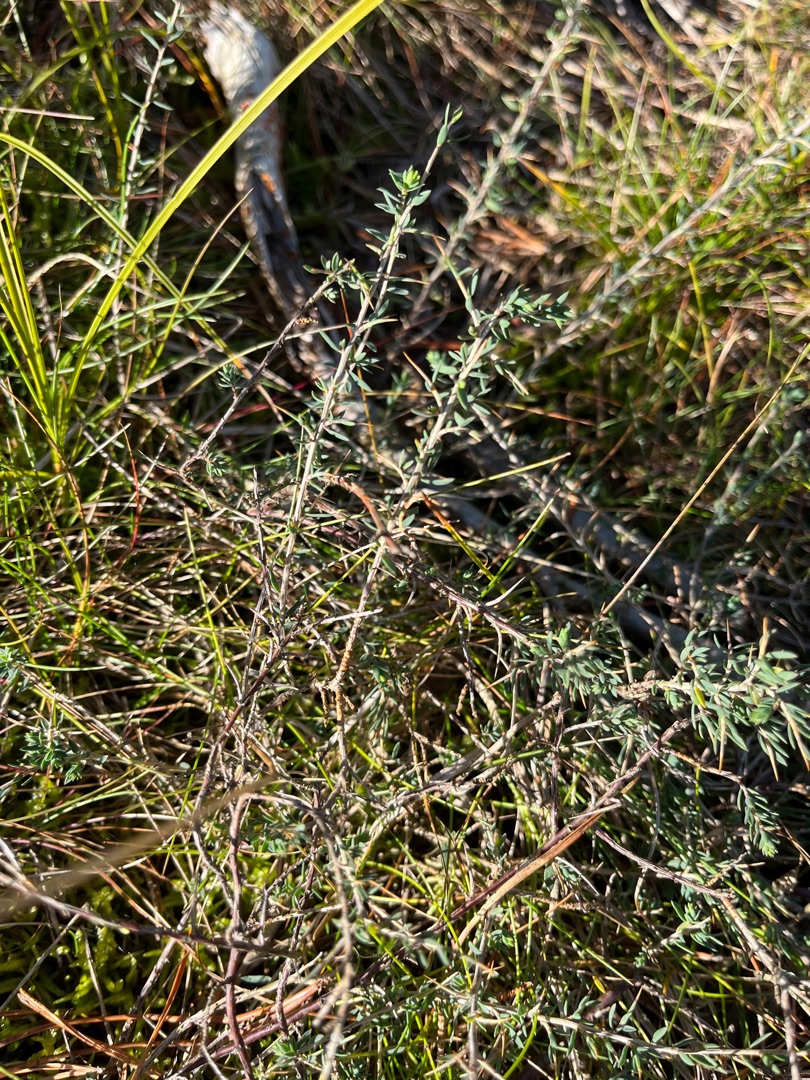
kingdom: Plantae
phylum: Tracheophyta
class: Magnoliopsida
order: Fabales
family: Fabaceae
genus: Genista
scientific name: Genista anglica
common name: Engelsk visse
